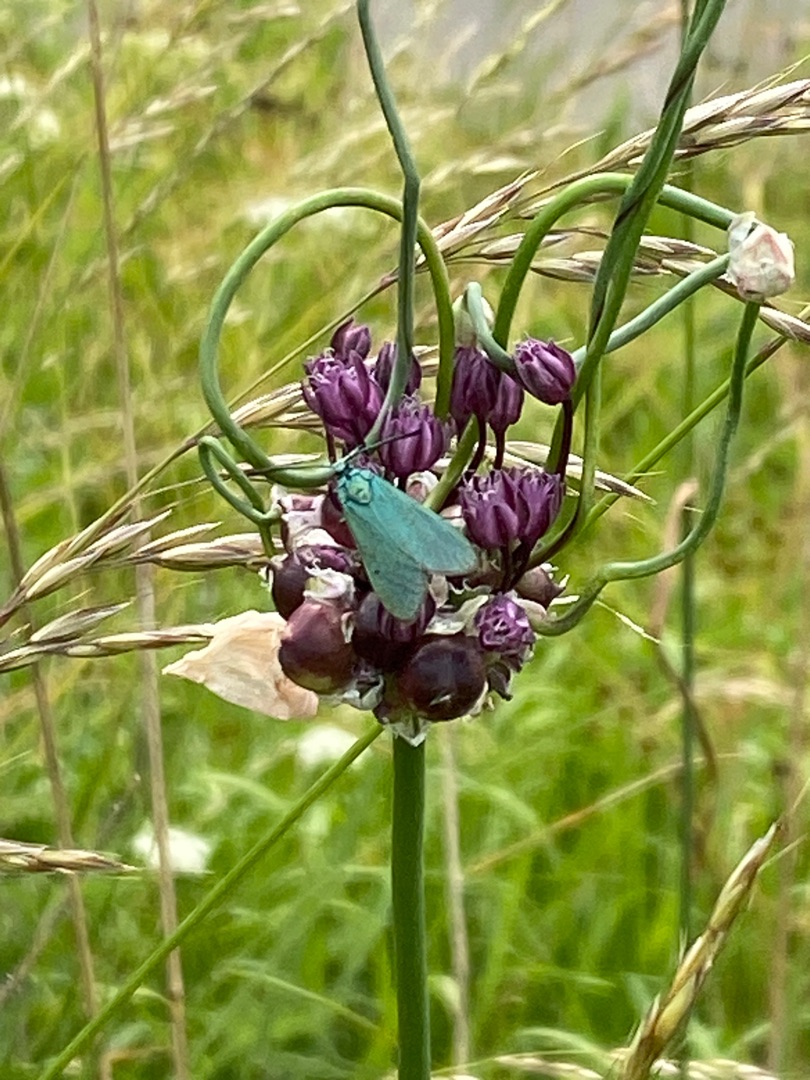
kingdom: Plantae
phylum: Tracheophyta
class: Liliopsida
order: Asparagales
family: Amaryllidaceae
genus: Allium
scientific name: Allium scorodoprasum
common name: Skov-løg
